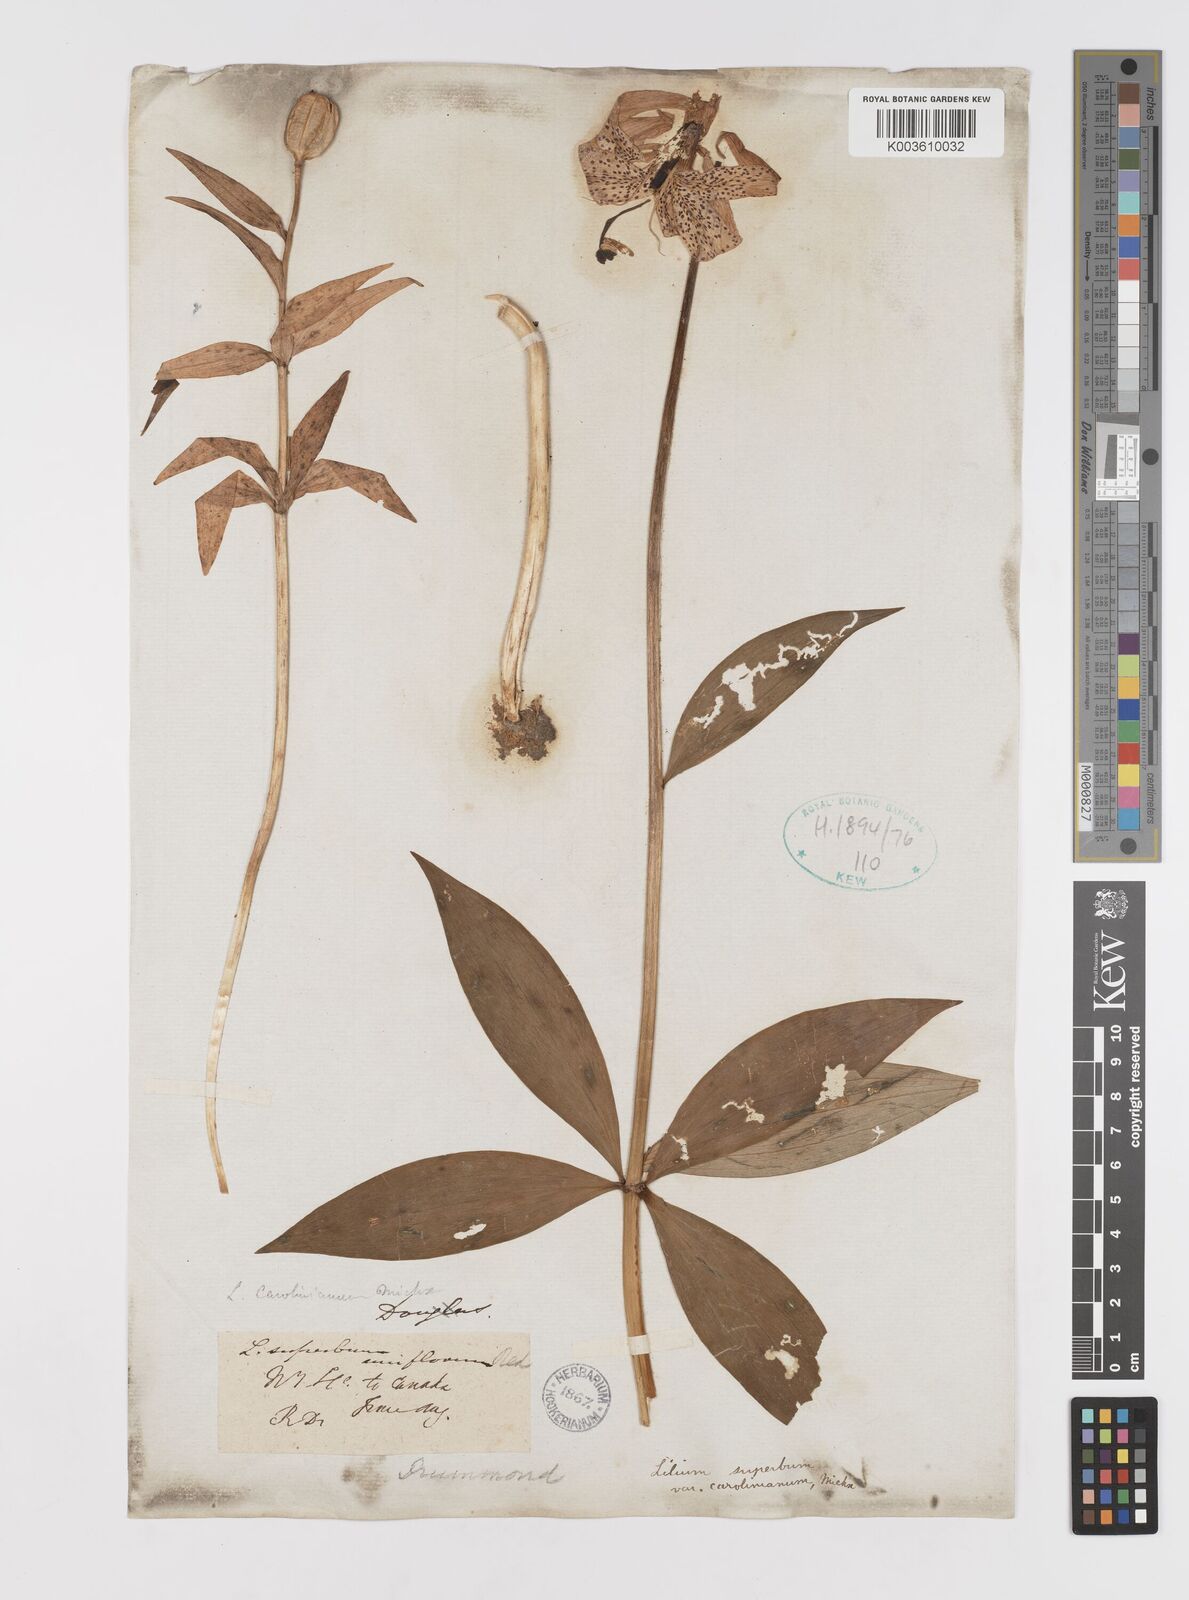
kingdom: Plantae
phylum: Tracheophyta
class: Liliopsida
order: Liliales
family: Liliaceae
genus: Lilium
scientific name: Lilium michauxii
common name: Carolina lily
